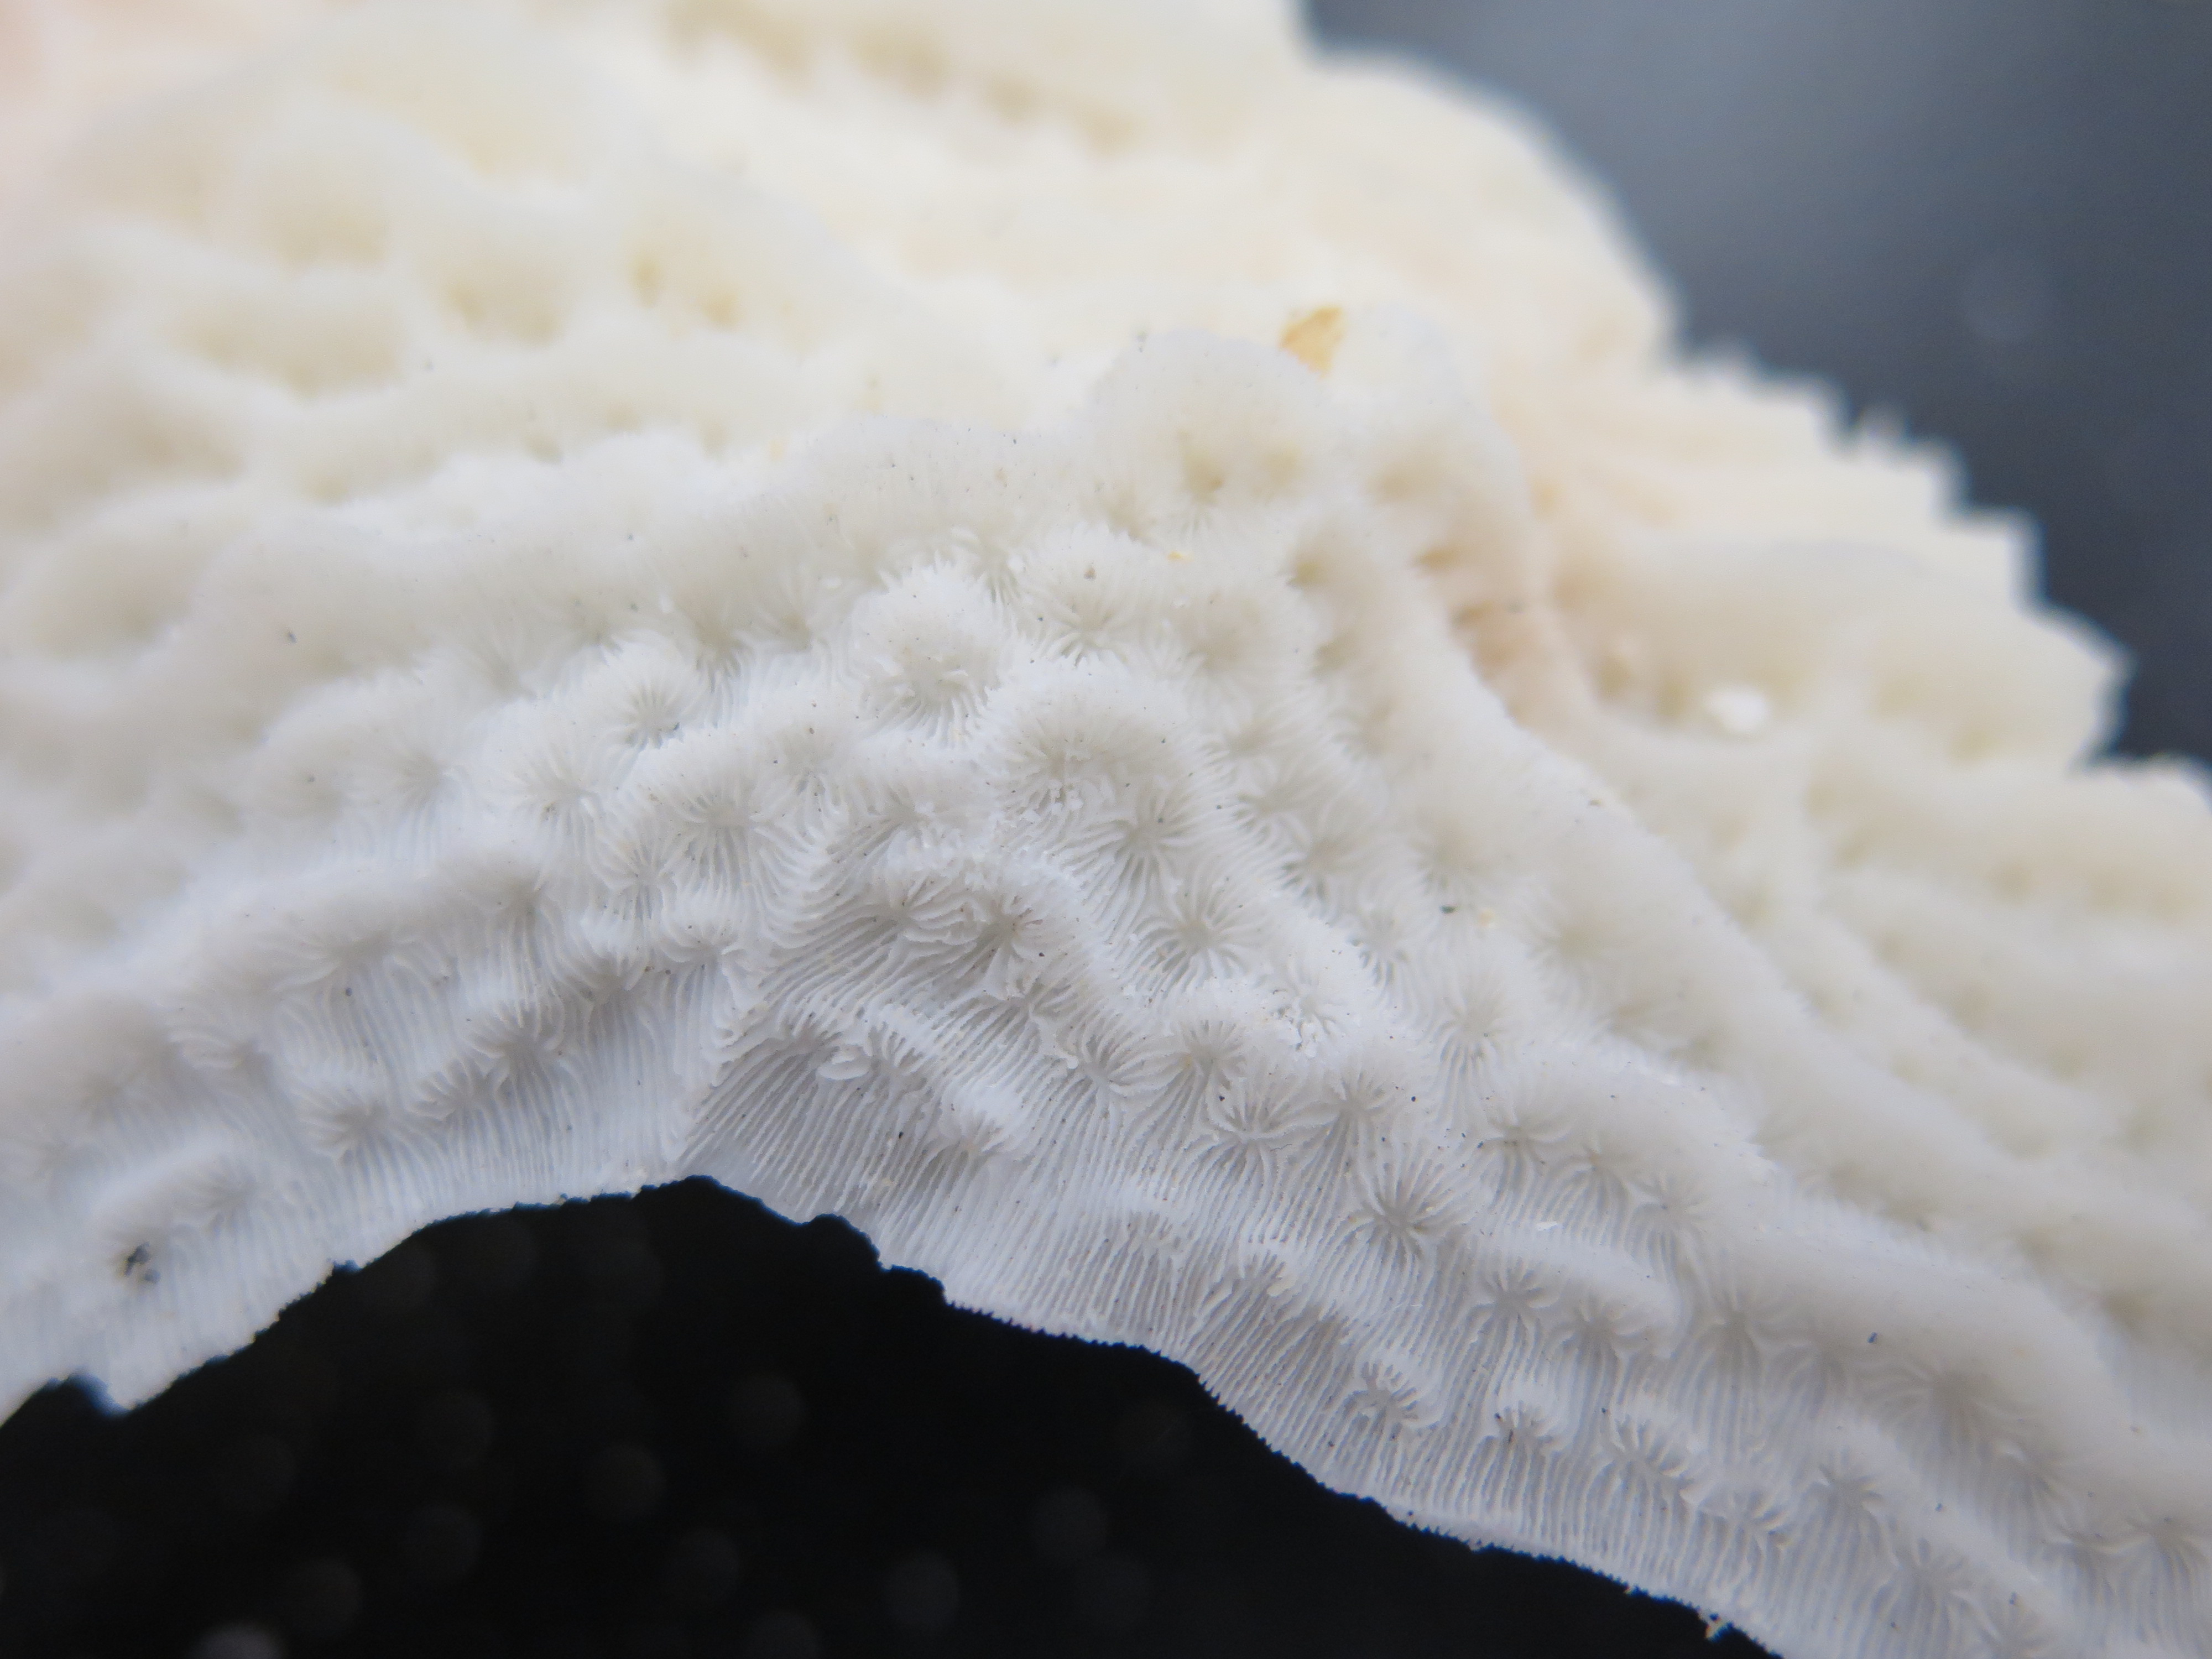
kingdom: Animalia
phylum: Cnidaria
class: Anthozoa
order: Scleractinia
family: Agariciidae
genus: Agaricia
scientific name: Agaricia agaricites
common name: Lettuce coral
